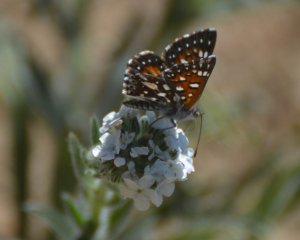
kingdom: Animalia
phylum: Arthropoda
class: Insecta
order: Lepidoptera
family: Riodinidae
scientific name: Riodinidae
